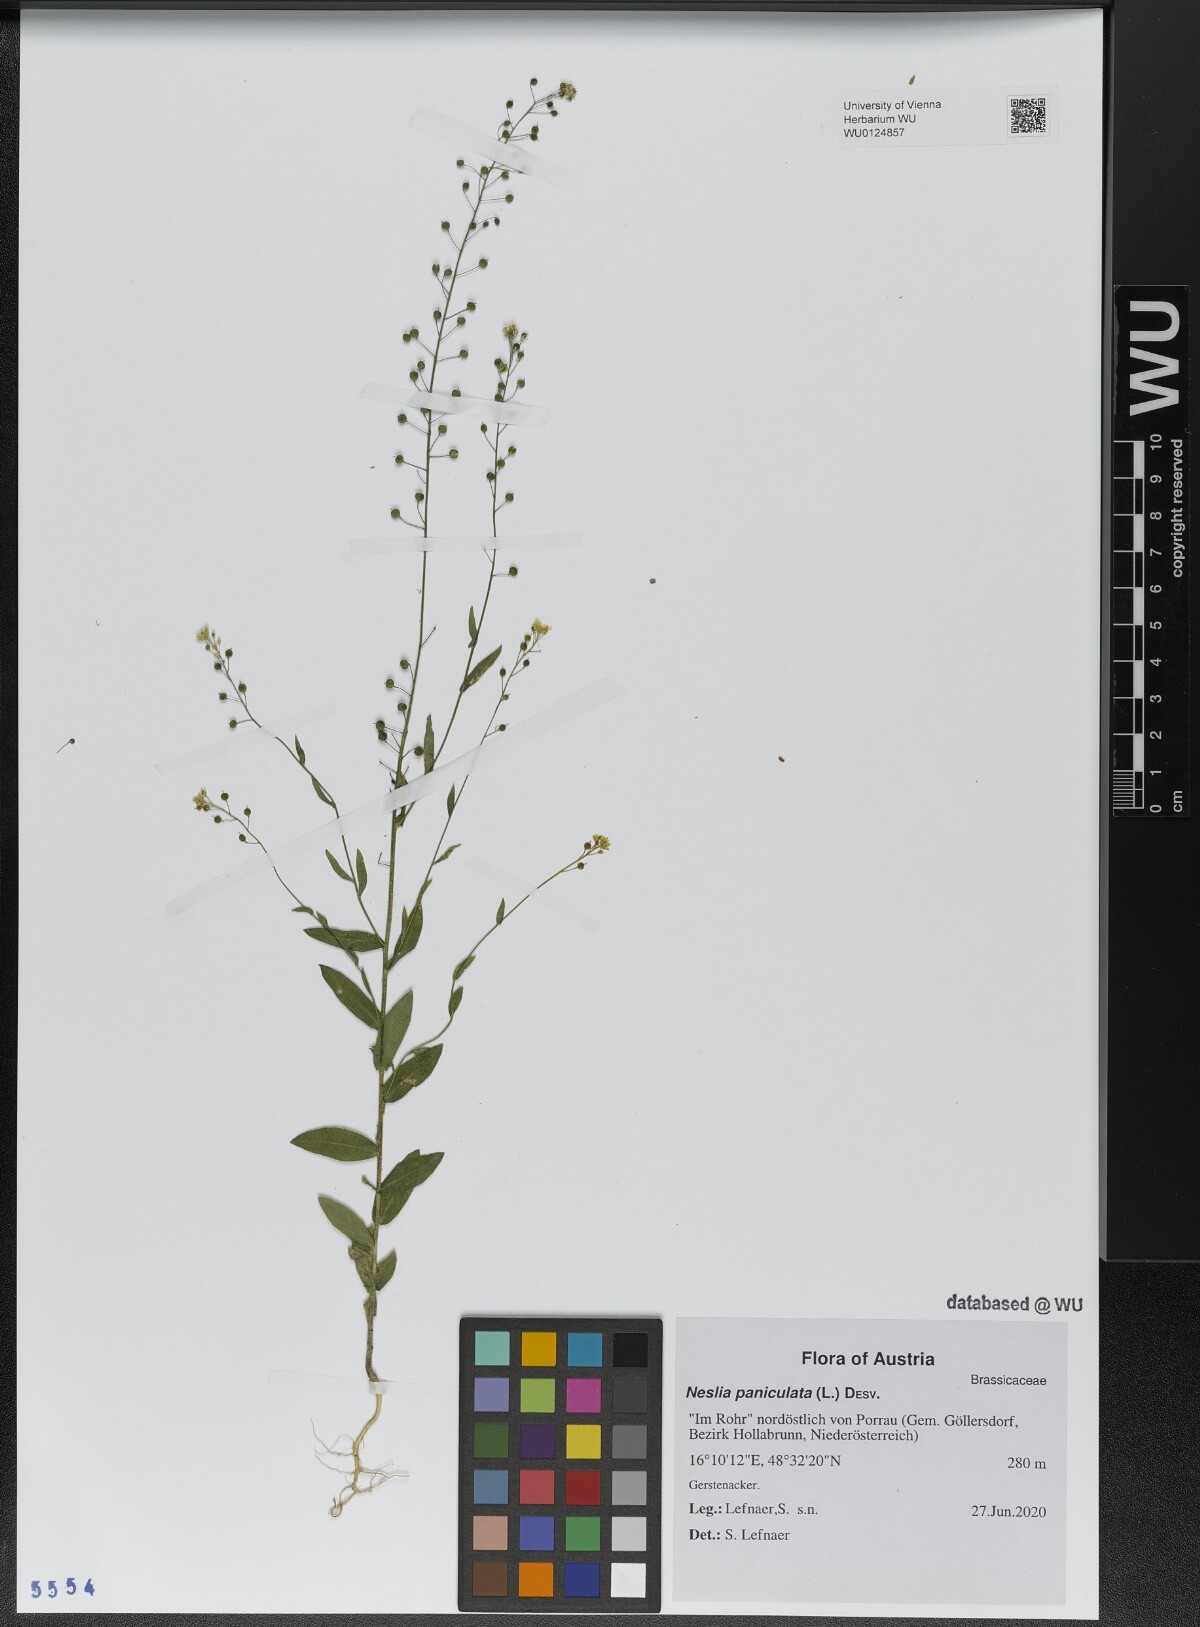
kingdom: Plantae
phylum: Tracheophyta
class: Magnoliopsida
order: Brassicales
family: Brassicaceae
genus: Neslia
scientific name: Neslia paniculata
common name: Ball mustard
